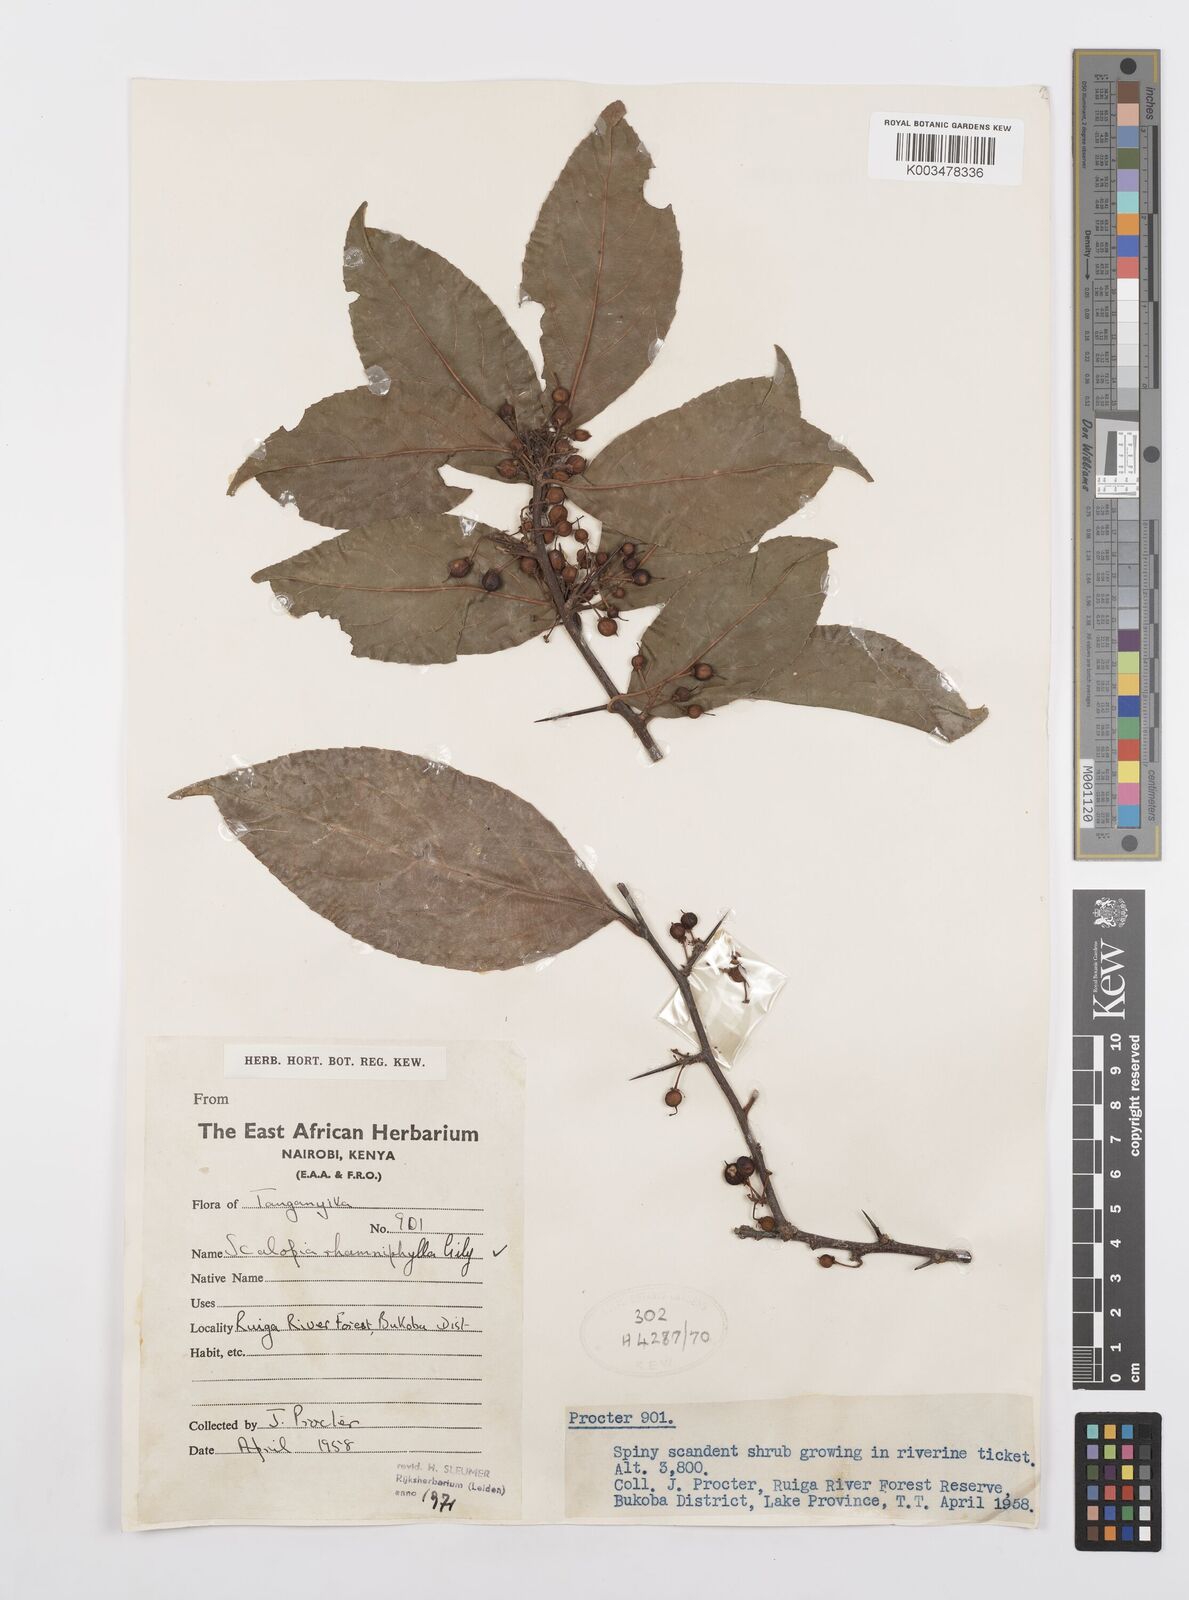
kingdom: Plantae
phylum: Tracheophyta
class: Magnoliopsida
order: Malpighiales
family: Salicaceae
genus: Scolopia
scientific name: Scolopia rhamniphylla
